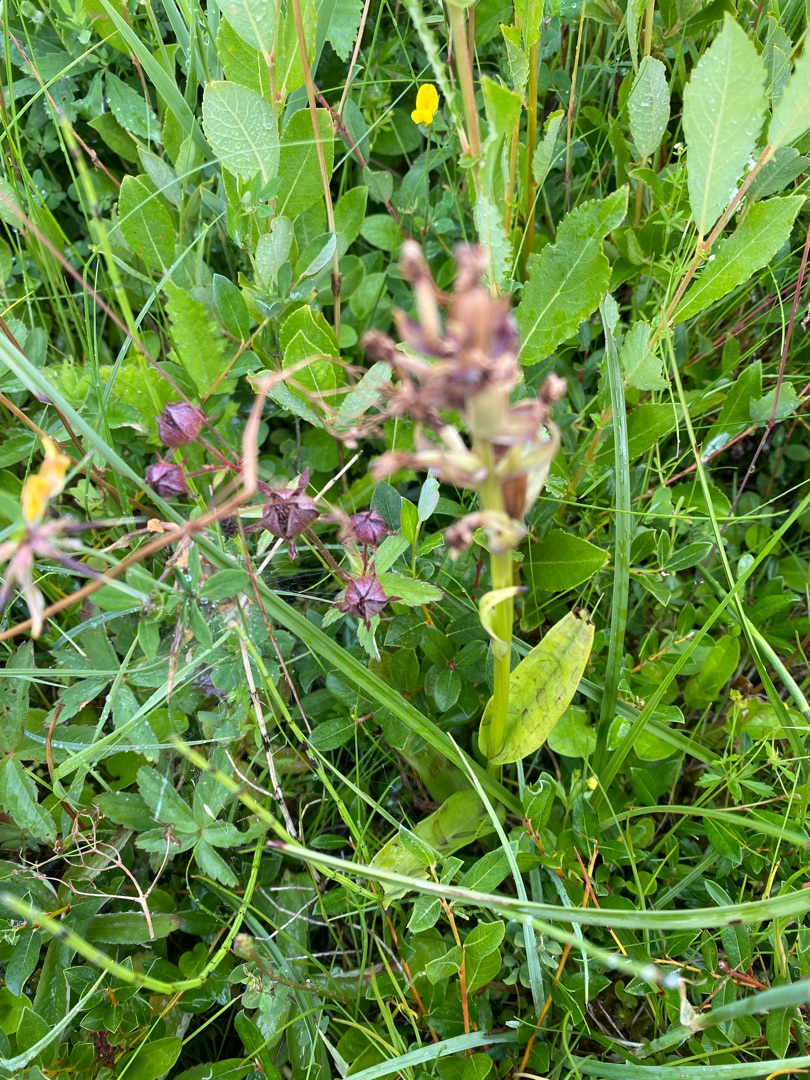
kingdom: Plantae
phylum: Tracheophyta
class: Liliopsida
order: Asparagales
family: Orchidaceae
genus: Dactylorhiza
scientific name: Dactylorhiza majalis
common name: Maj-gøgeurt
